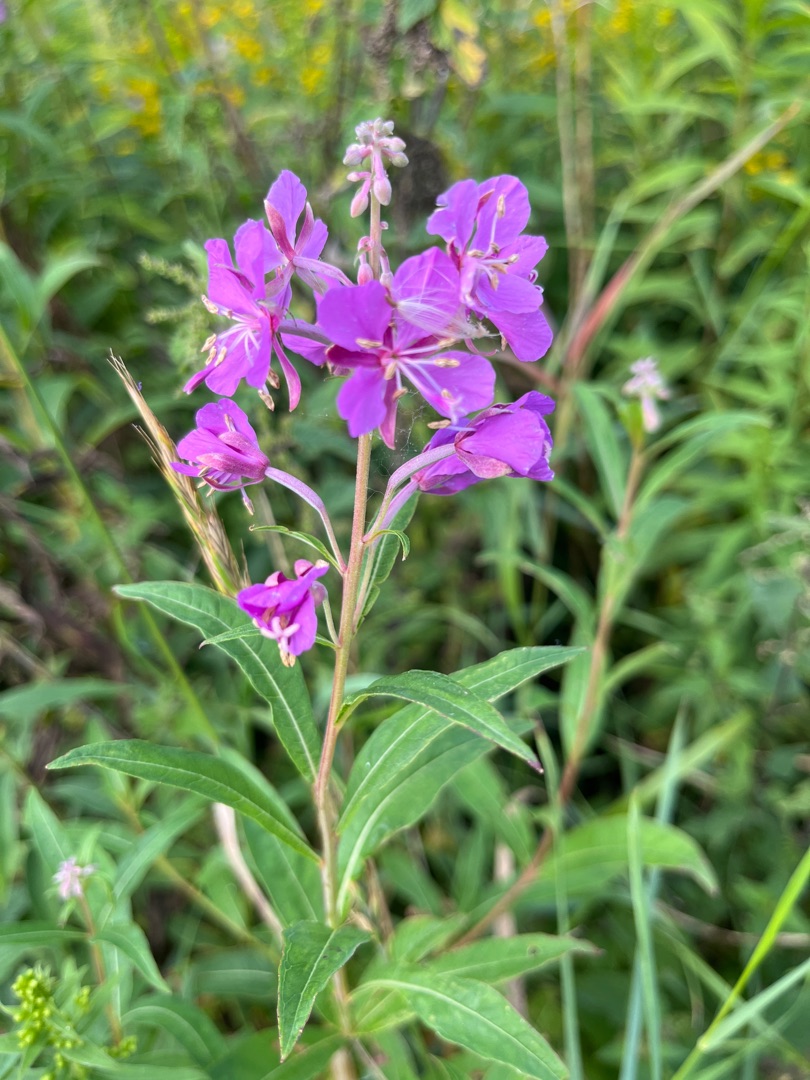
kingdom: Plantae
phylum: Tracheophyta
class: Magnoliopsida
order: Myrtales
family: Onagraceae
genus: Chamaenerion
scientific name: Chamaenerion angustifolium
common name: Gederams
